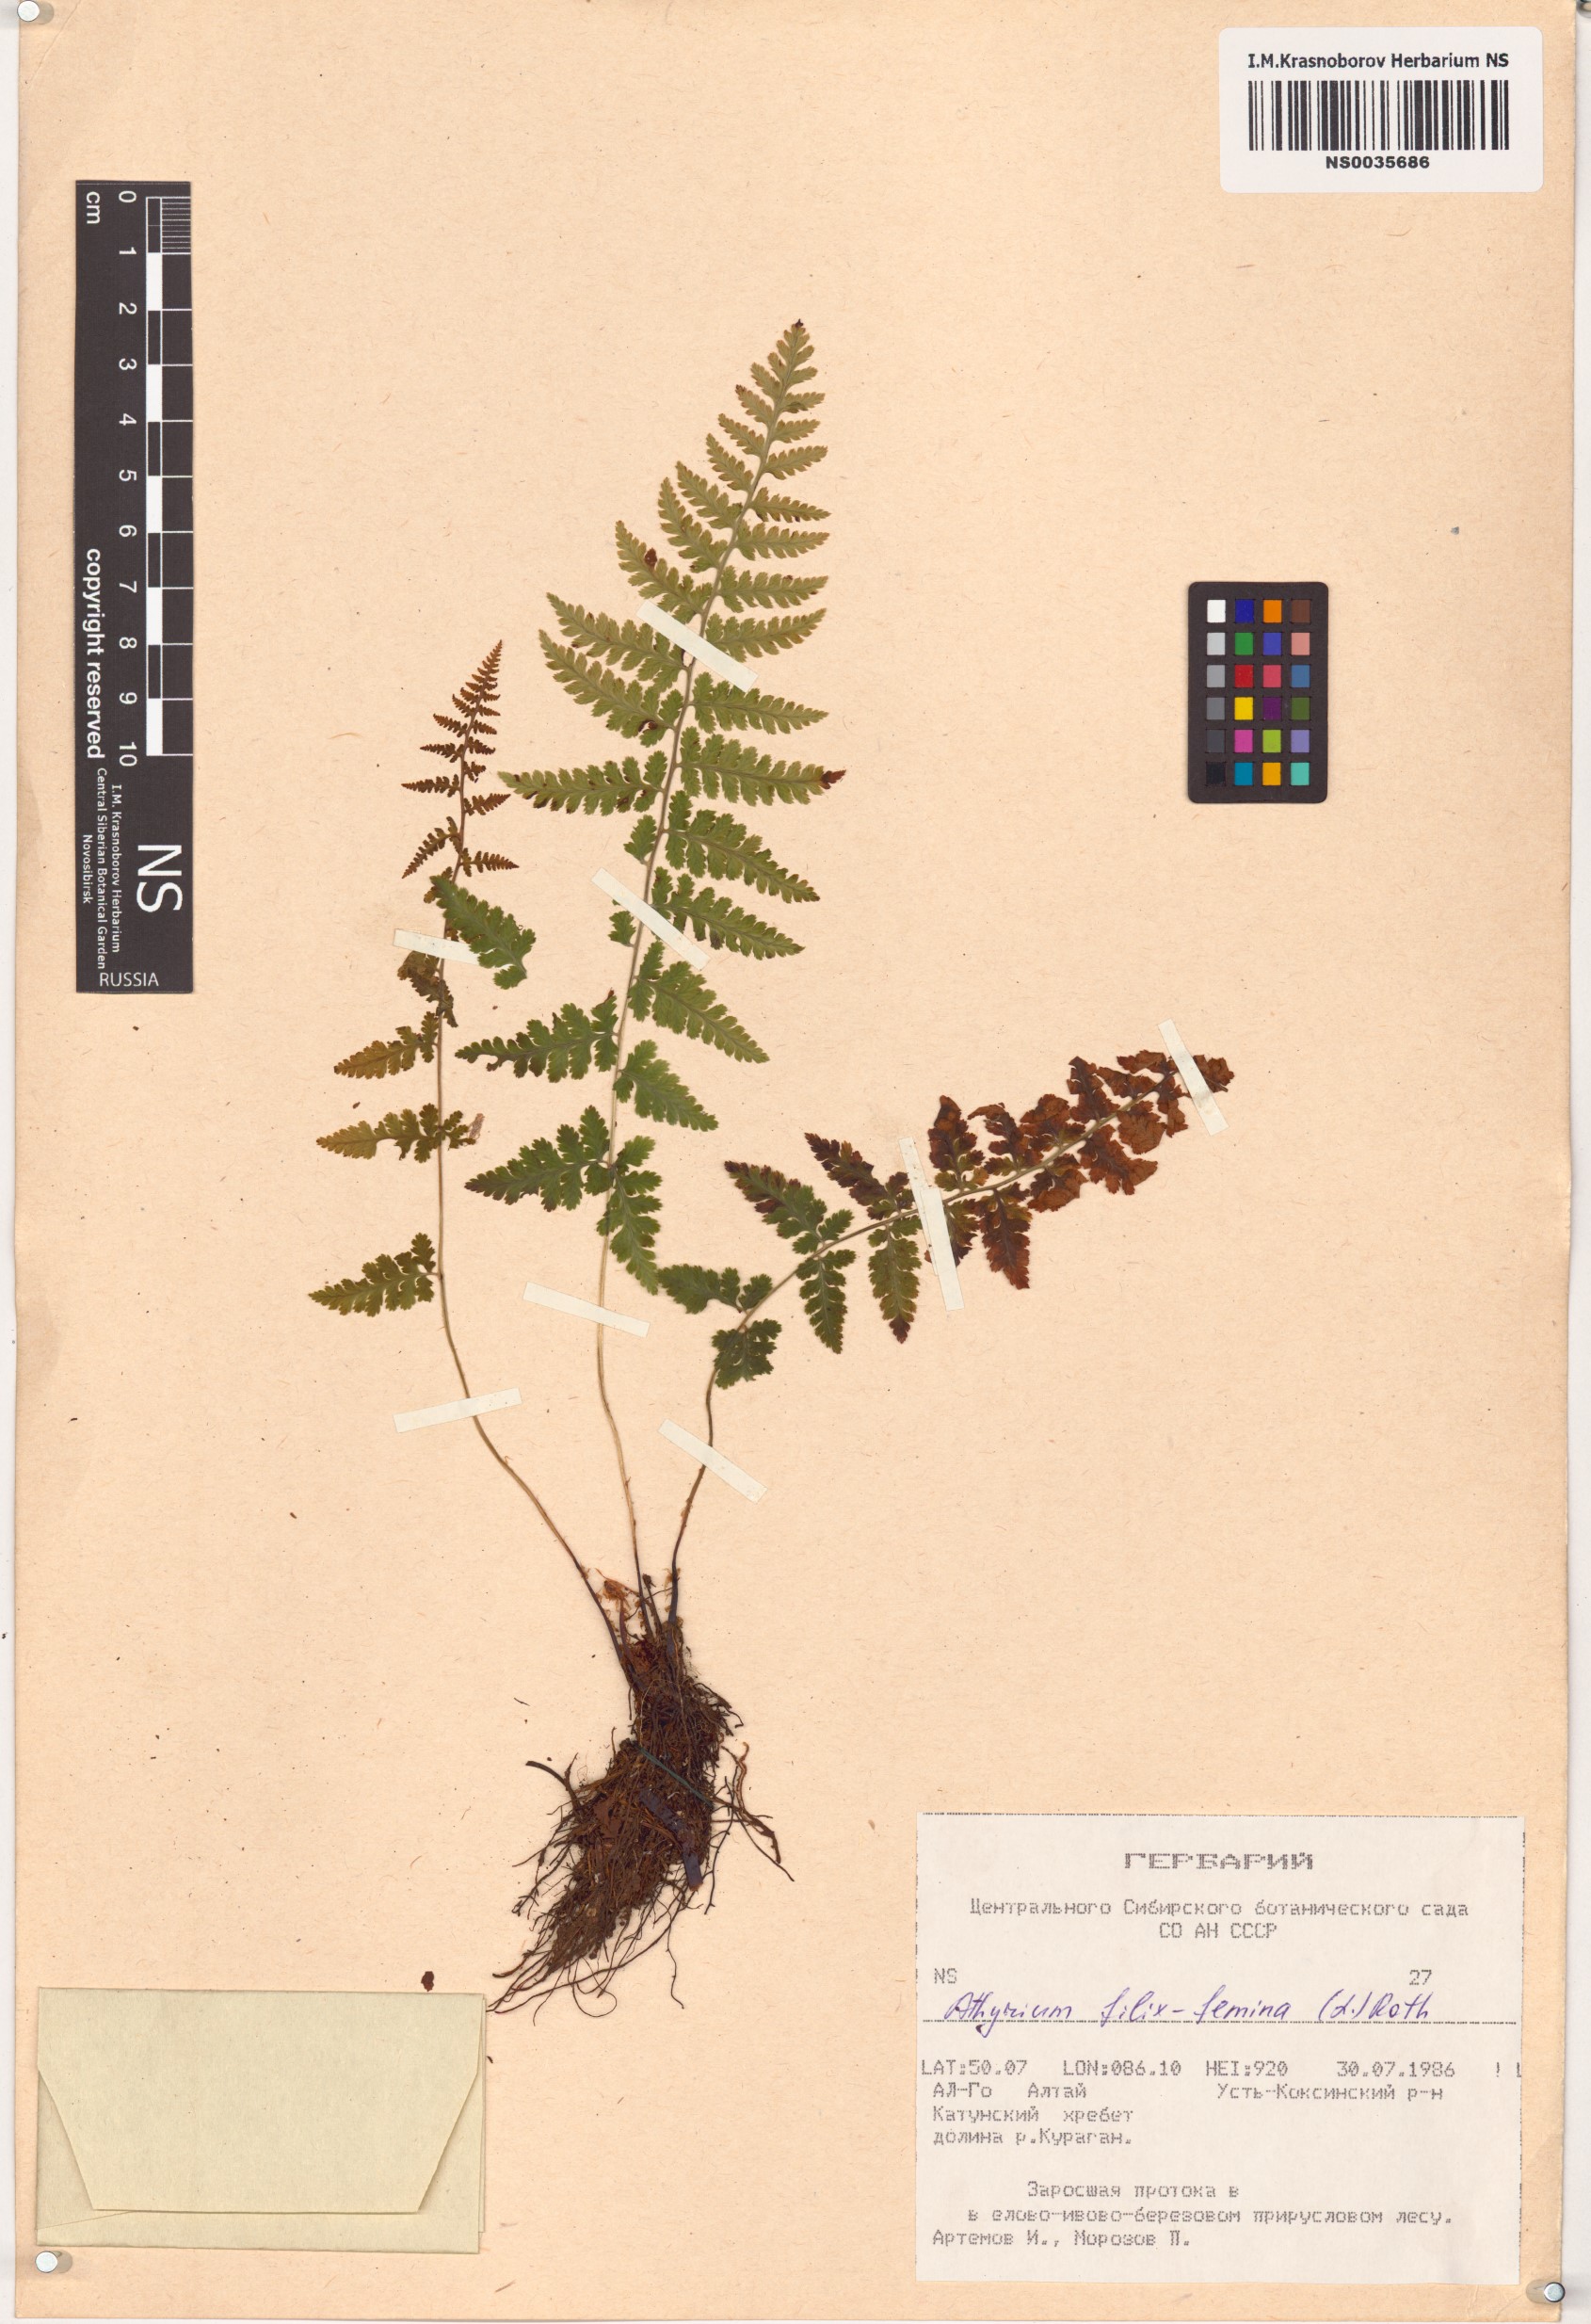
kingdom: Plantae
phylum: Tracheophyta
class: Polypodiopsida
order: Polypodiales
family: Athyriaceae
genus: Athyrium
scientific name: Athyrium filix-femina
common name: Lady fern
